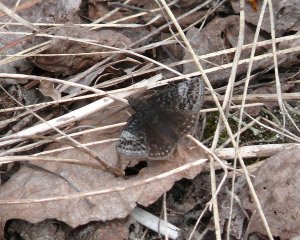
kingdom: Animalia
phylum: Arthropoda
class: Insecta
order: Lepidoptera
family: Hesperiidae
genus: Erynnis
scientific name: Erynnis icelus
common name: Dreamy Duskywing
